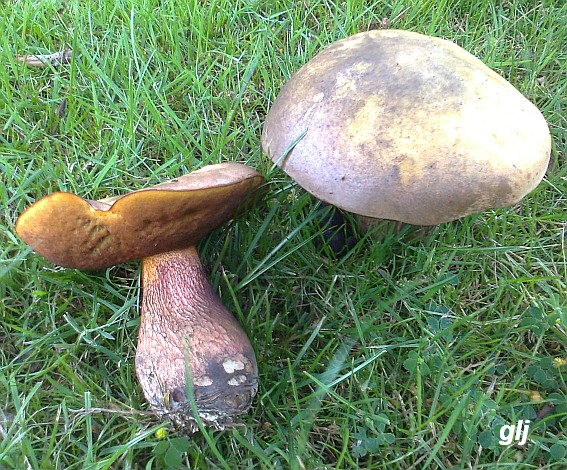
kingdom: Fungi
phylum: Basidiomycota
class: Agaricomycetes
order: Boletales
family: Boletaceae
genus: Suillellus
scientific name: Suillellus luridus
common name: netstokket indigorørhat
